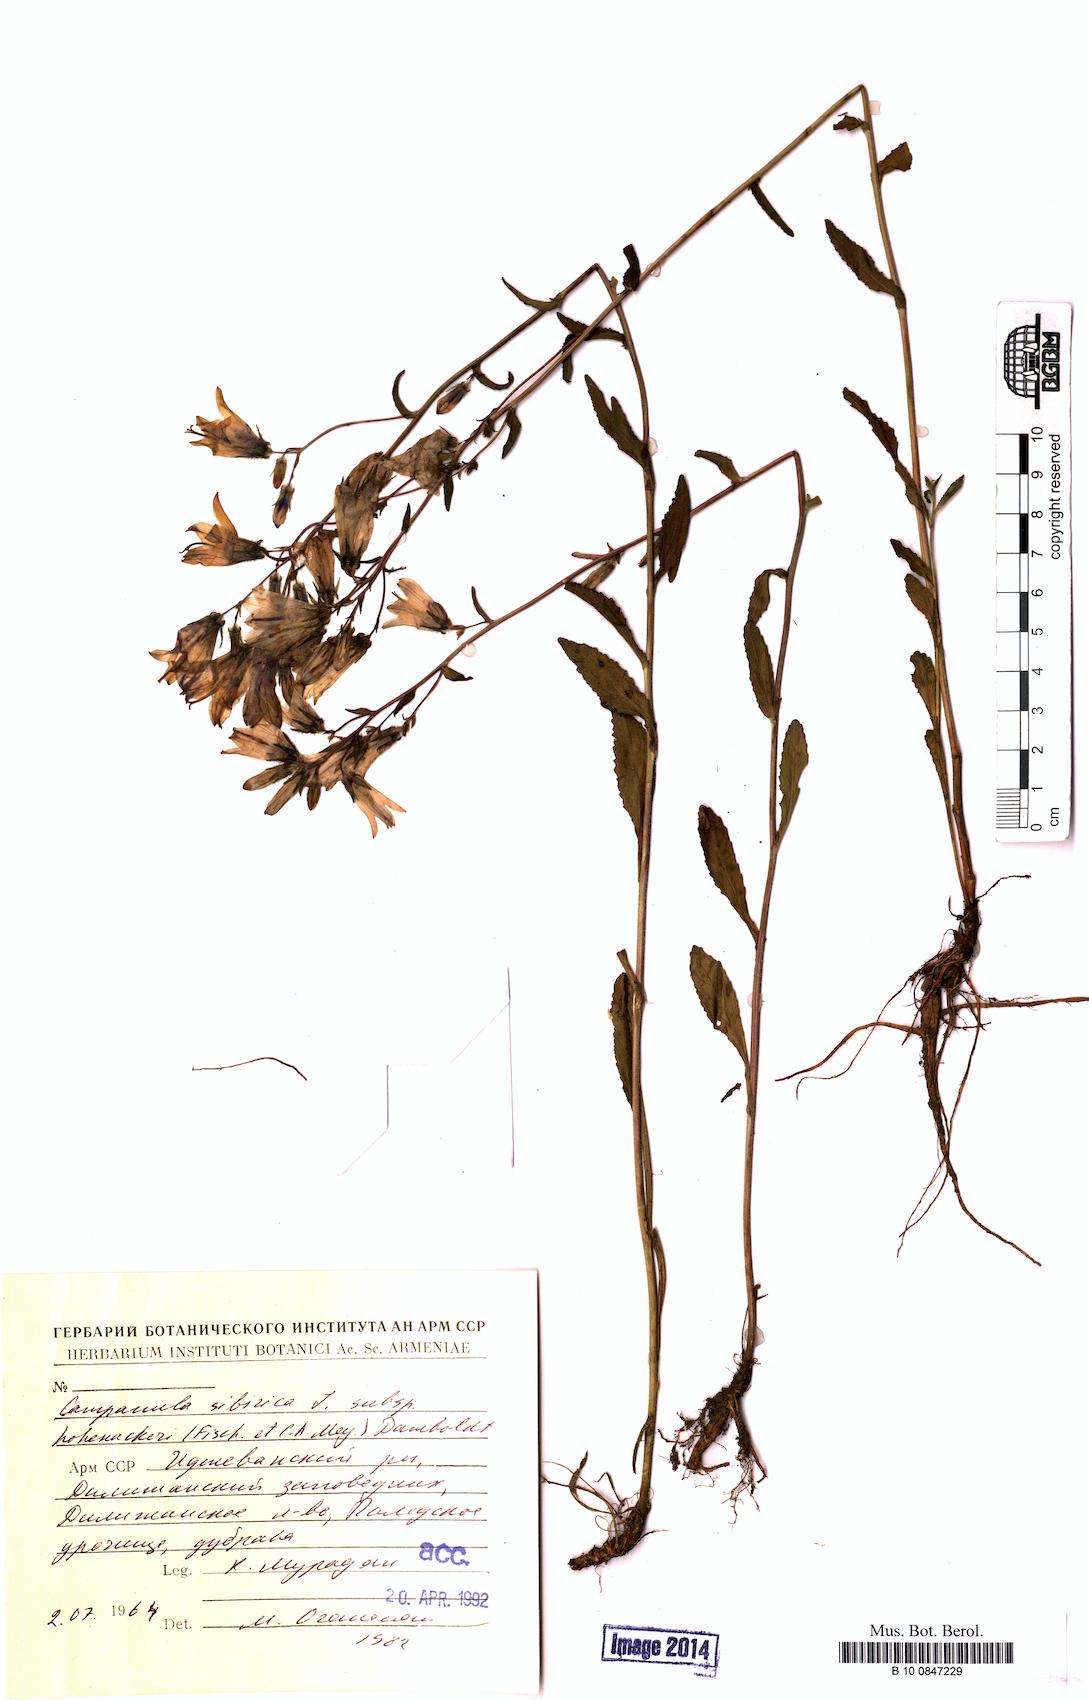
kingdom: Plantae
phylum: Tracheophyta
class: Magnoliopsida
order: Asterales
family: Campanulaceae
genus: Campanula
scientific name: Campanula sibirica
